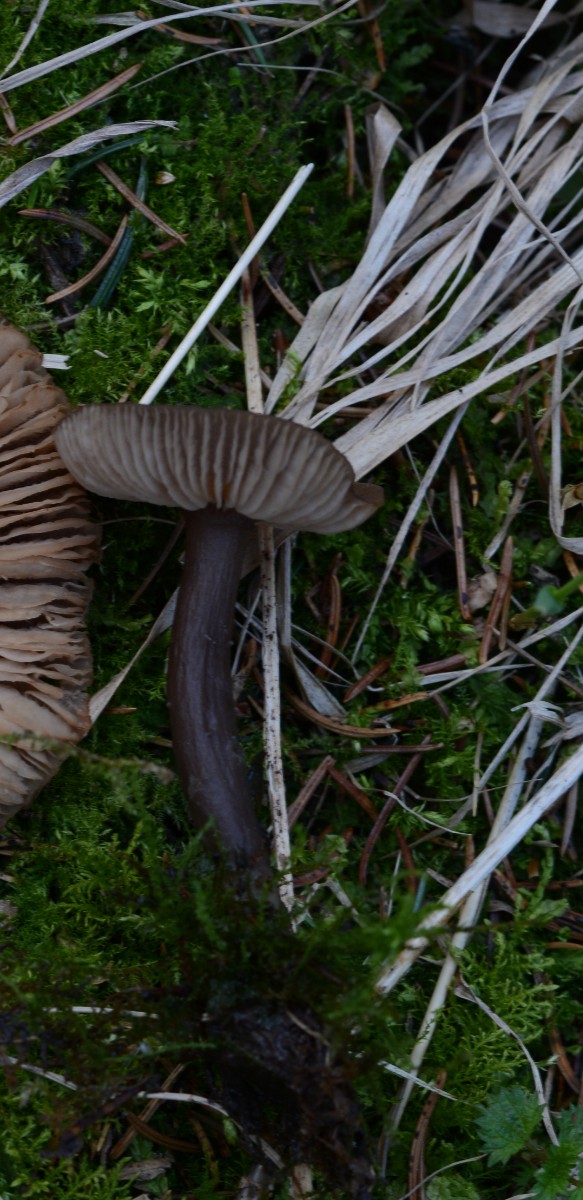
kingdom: Fungi
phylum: Basidiomycota
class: Agaricomycetes
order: Agaricales
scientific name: Agaricales
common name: champignonordenen
